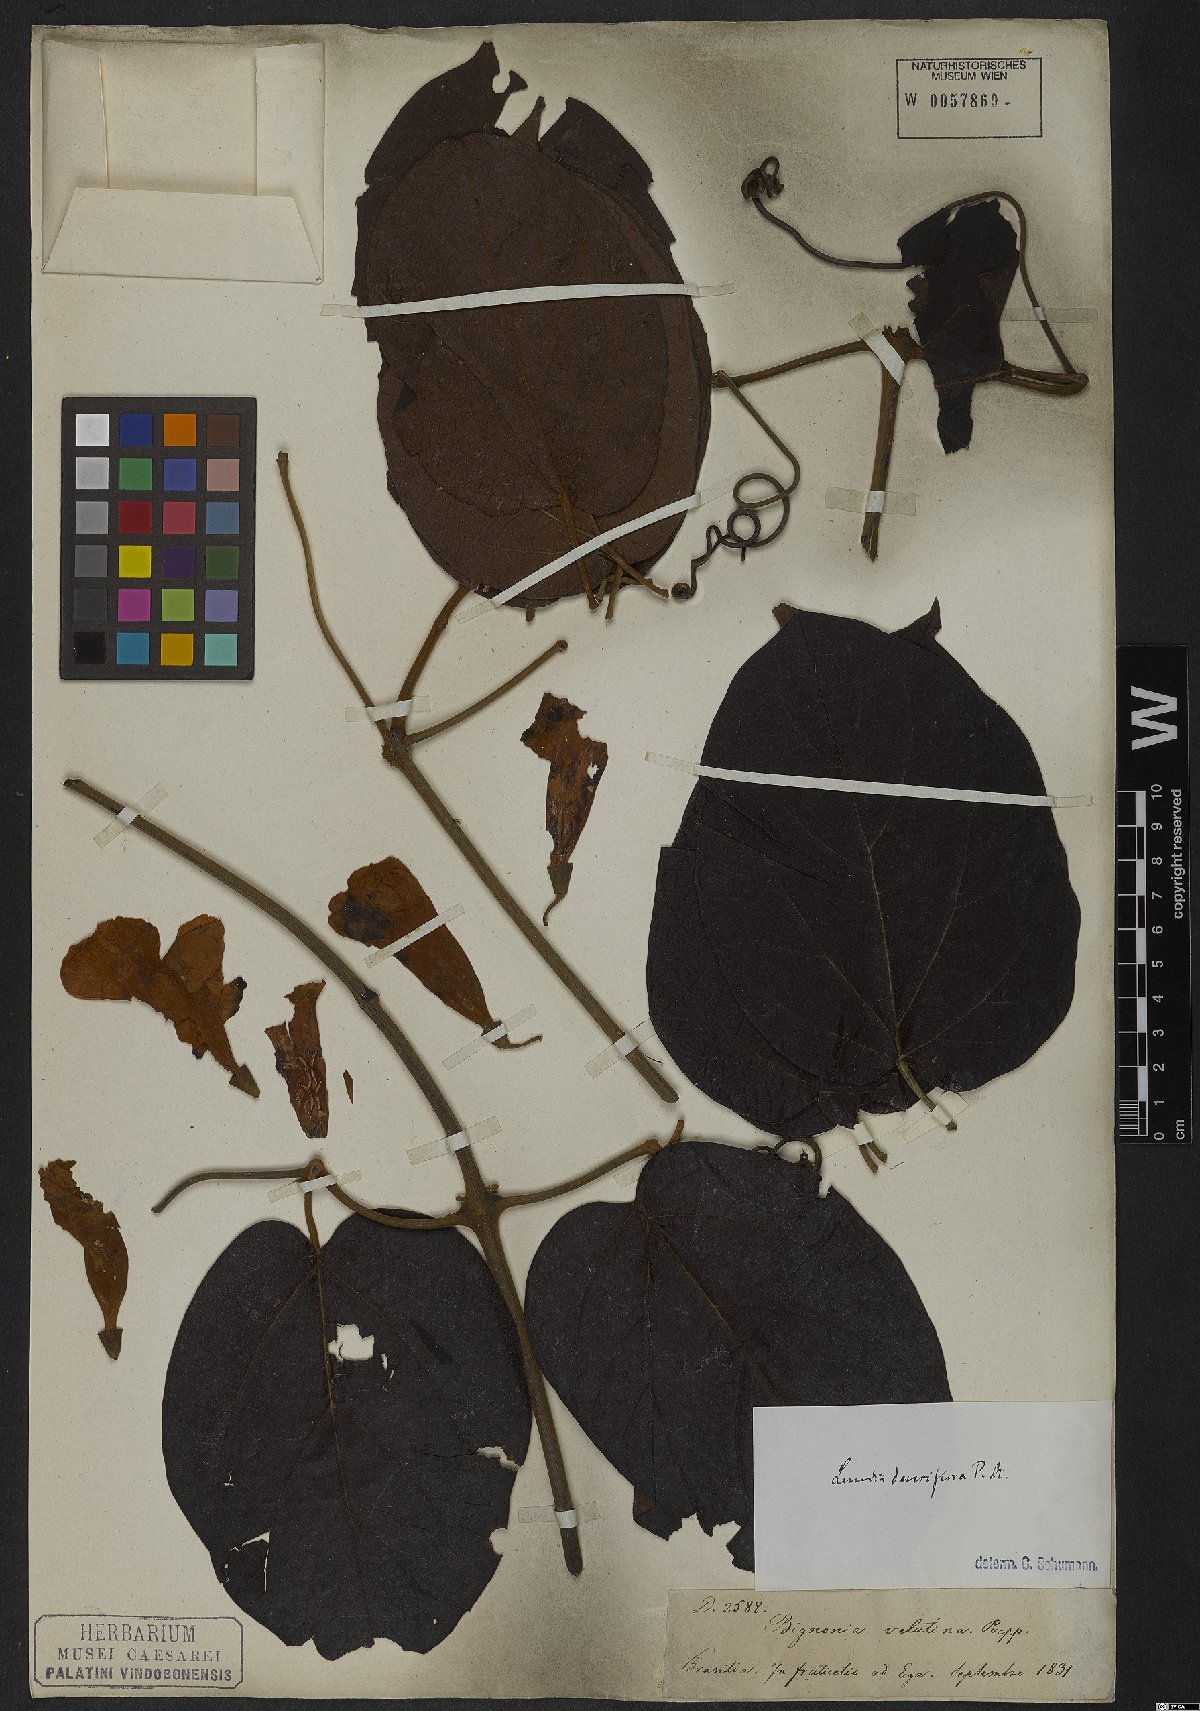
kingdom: Plantae
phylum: Tracheophyta
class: Magnoliopsida
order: Lamiales
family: Bignoniaceae
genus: Lundia
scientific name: Lundia densiflora
